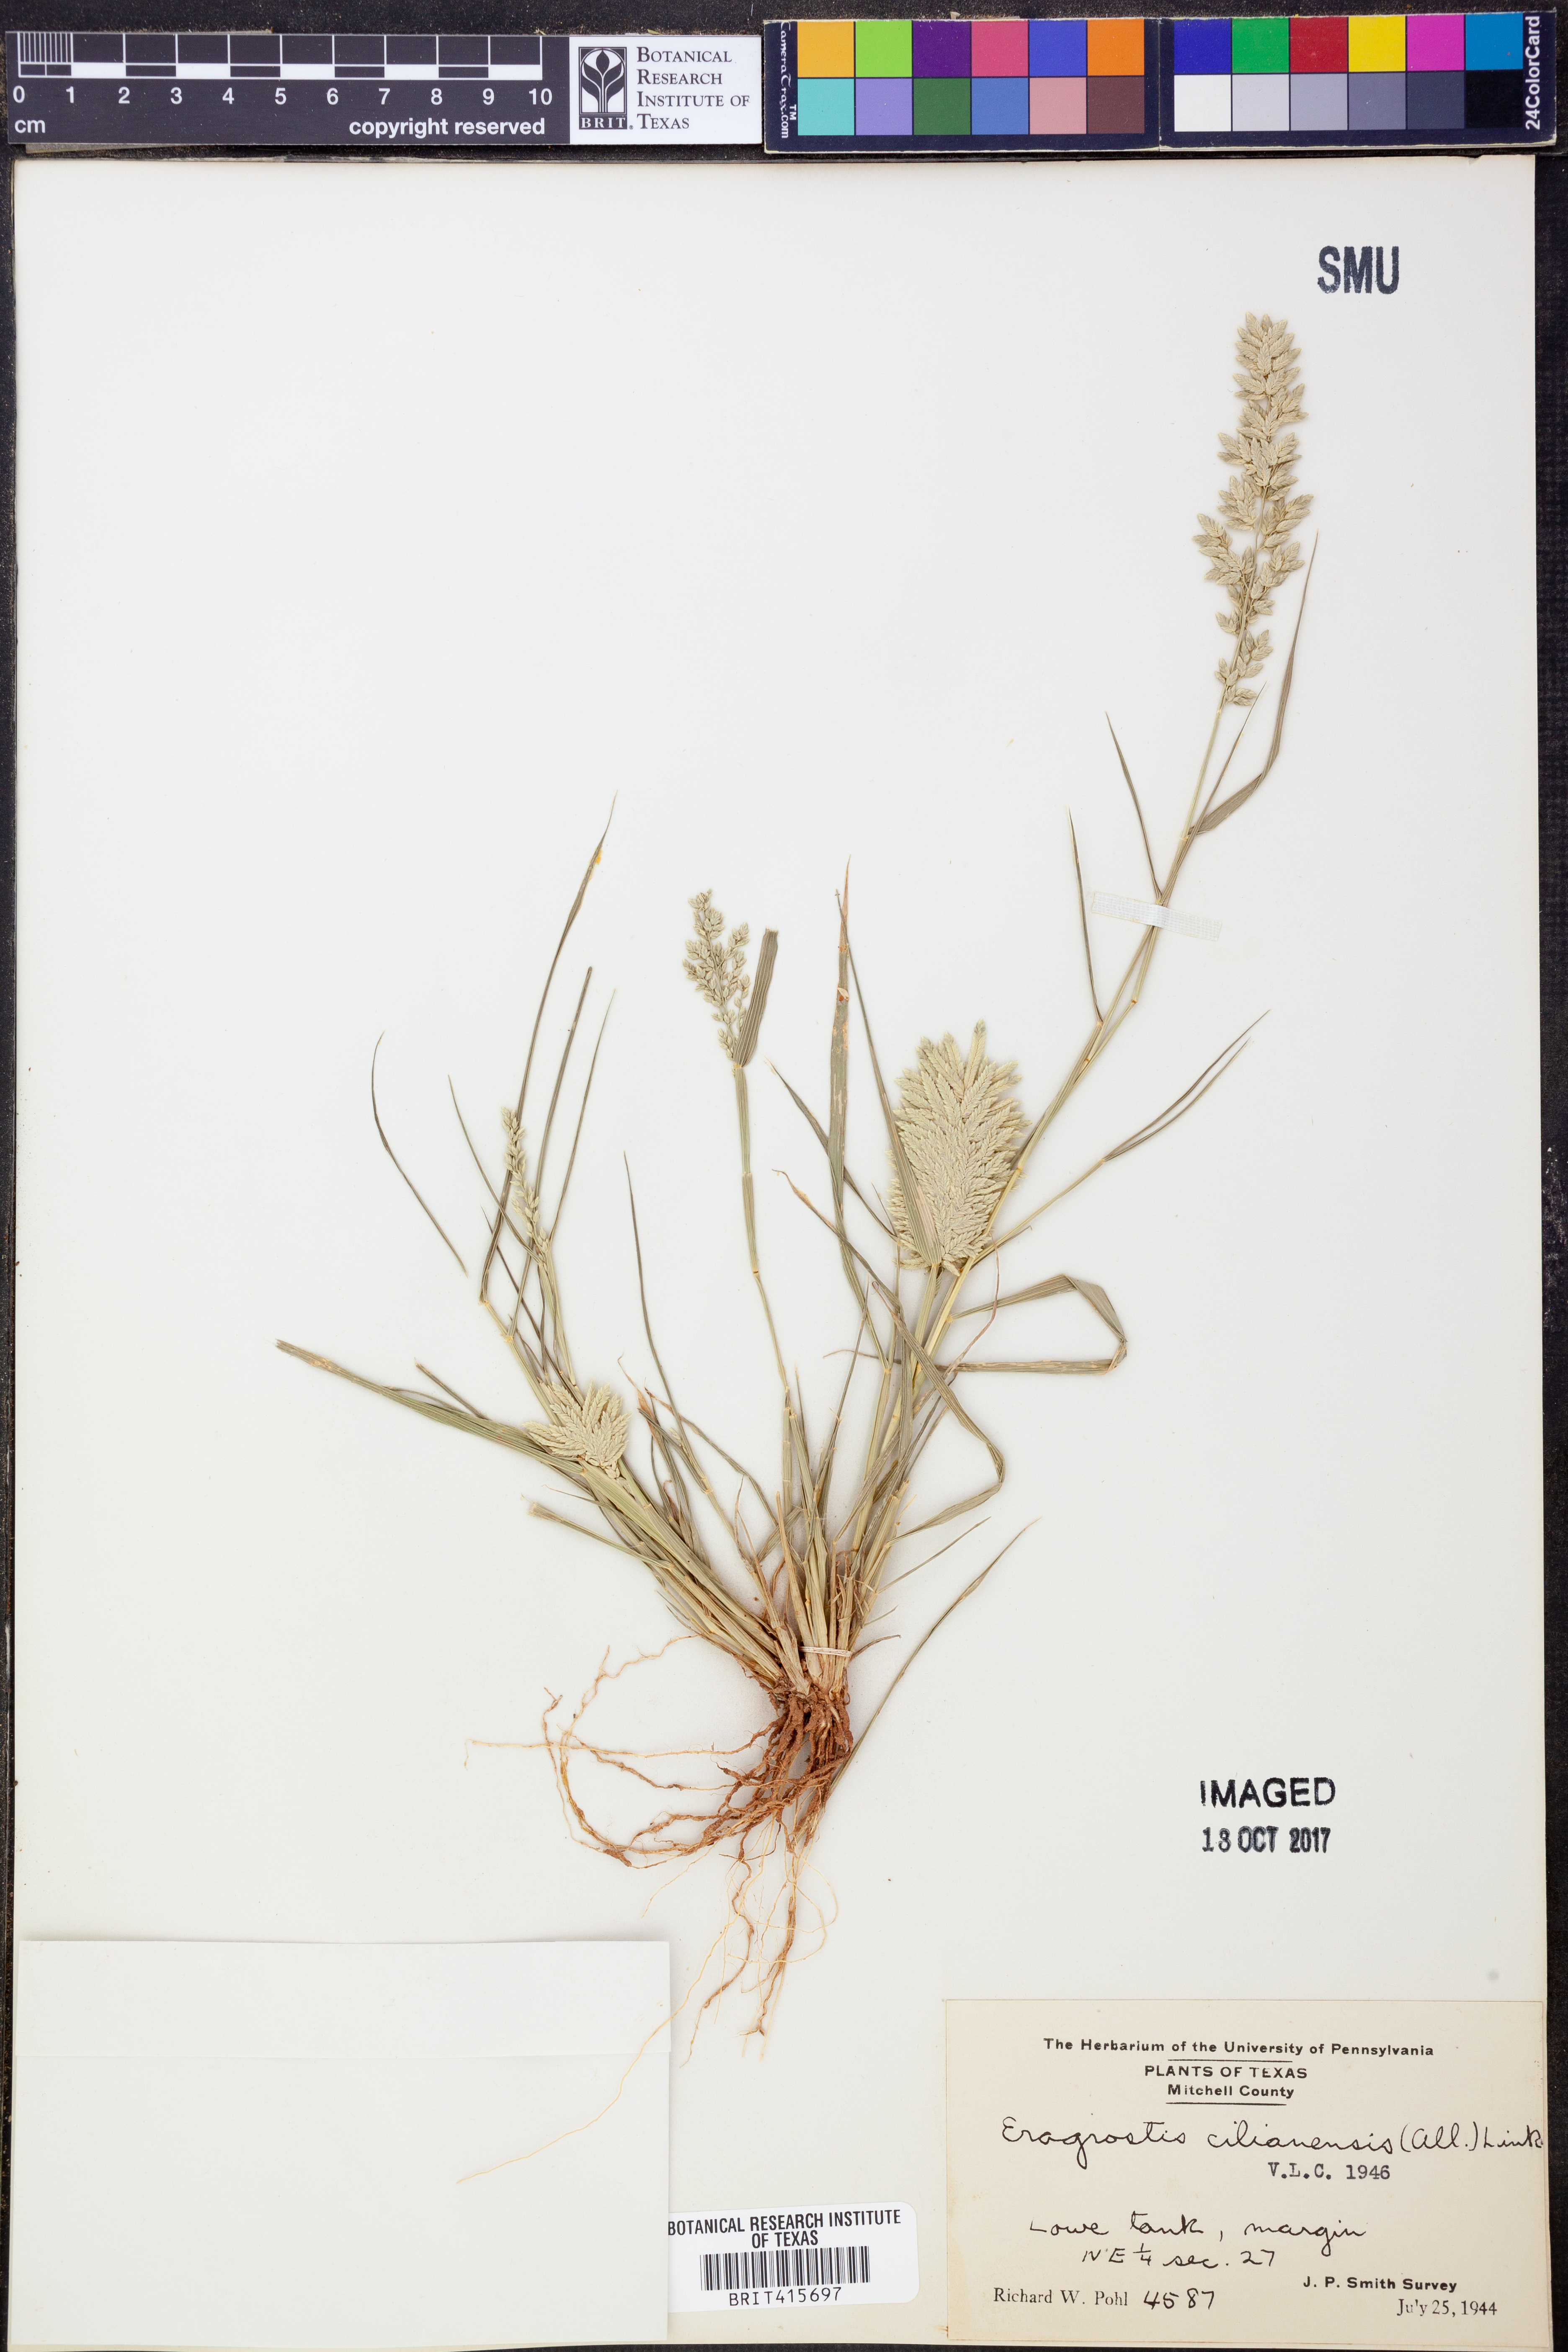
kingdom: Plantae
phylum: Tracheophyta
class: Liliopsida
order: Poales
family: Poaceae
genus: Eragrostis
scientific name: Eragrostis cilianensis
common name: Stinkgrass
